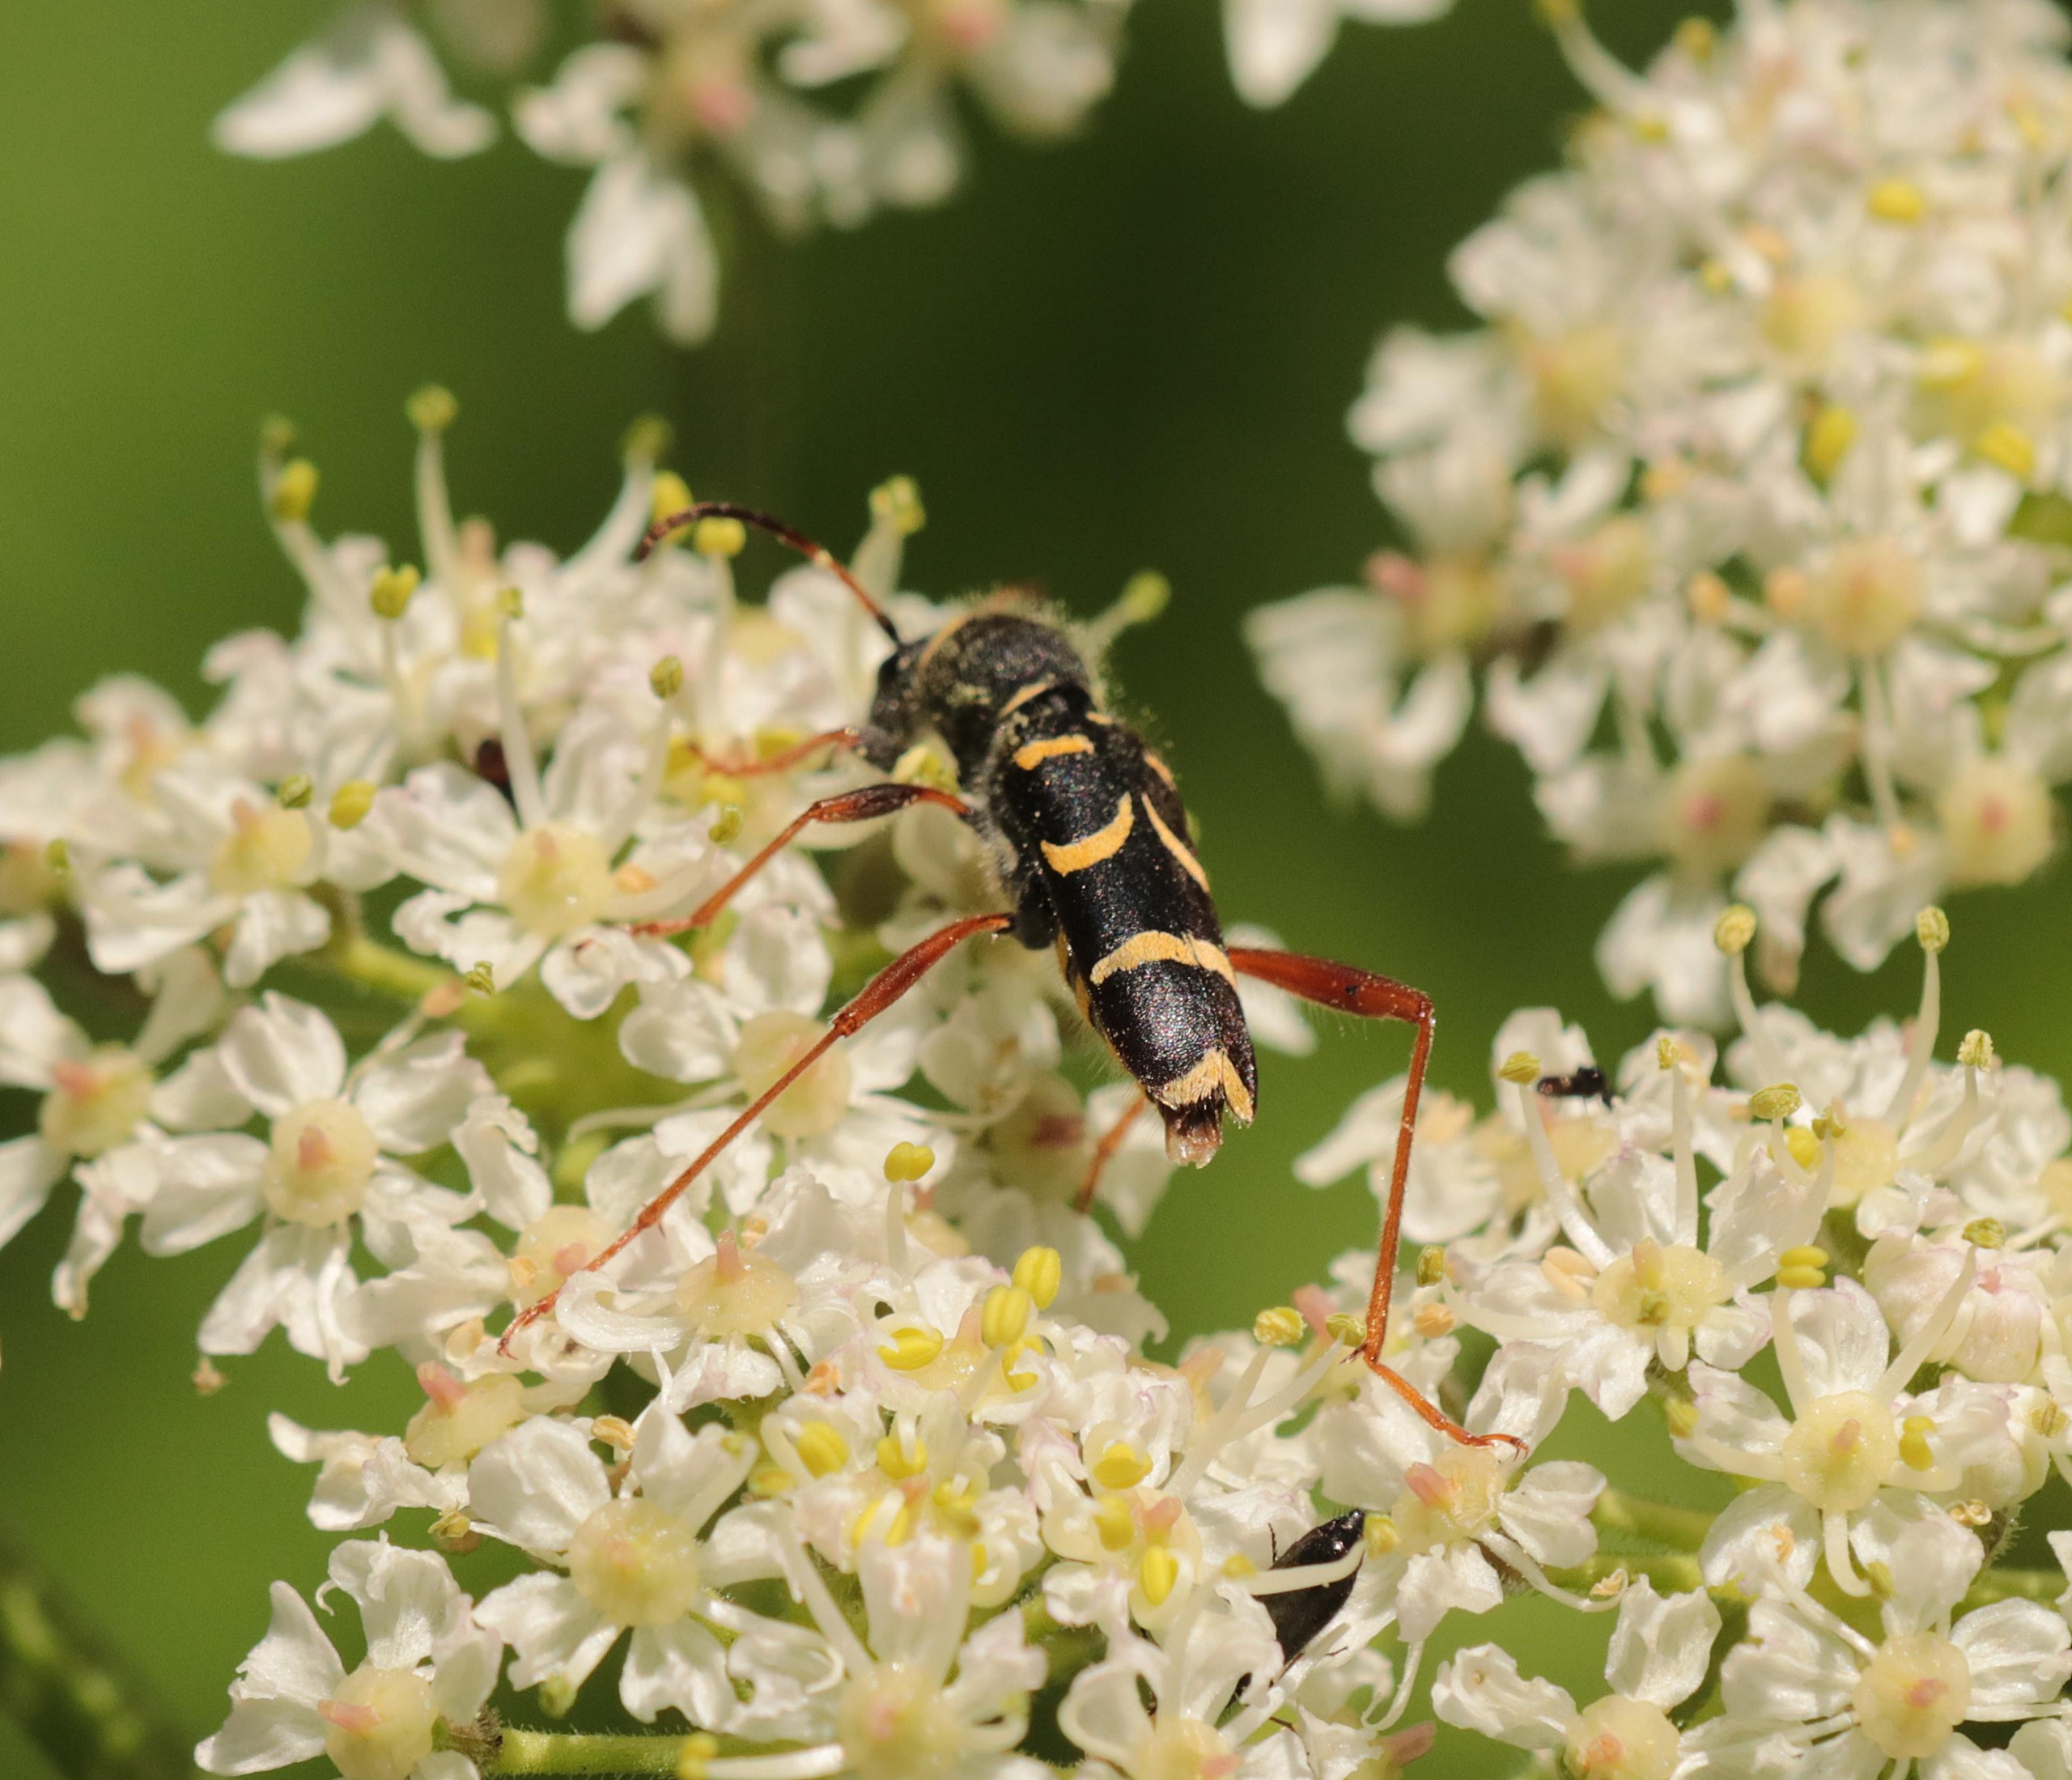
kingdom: Animalia
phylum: Arthropoda
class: Insecta
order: Coleoptera
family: Cerambycidae
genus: Clytus
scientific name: Clytus arietis
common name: Lille hvepsebuk
